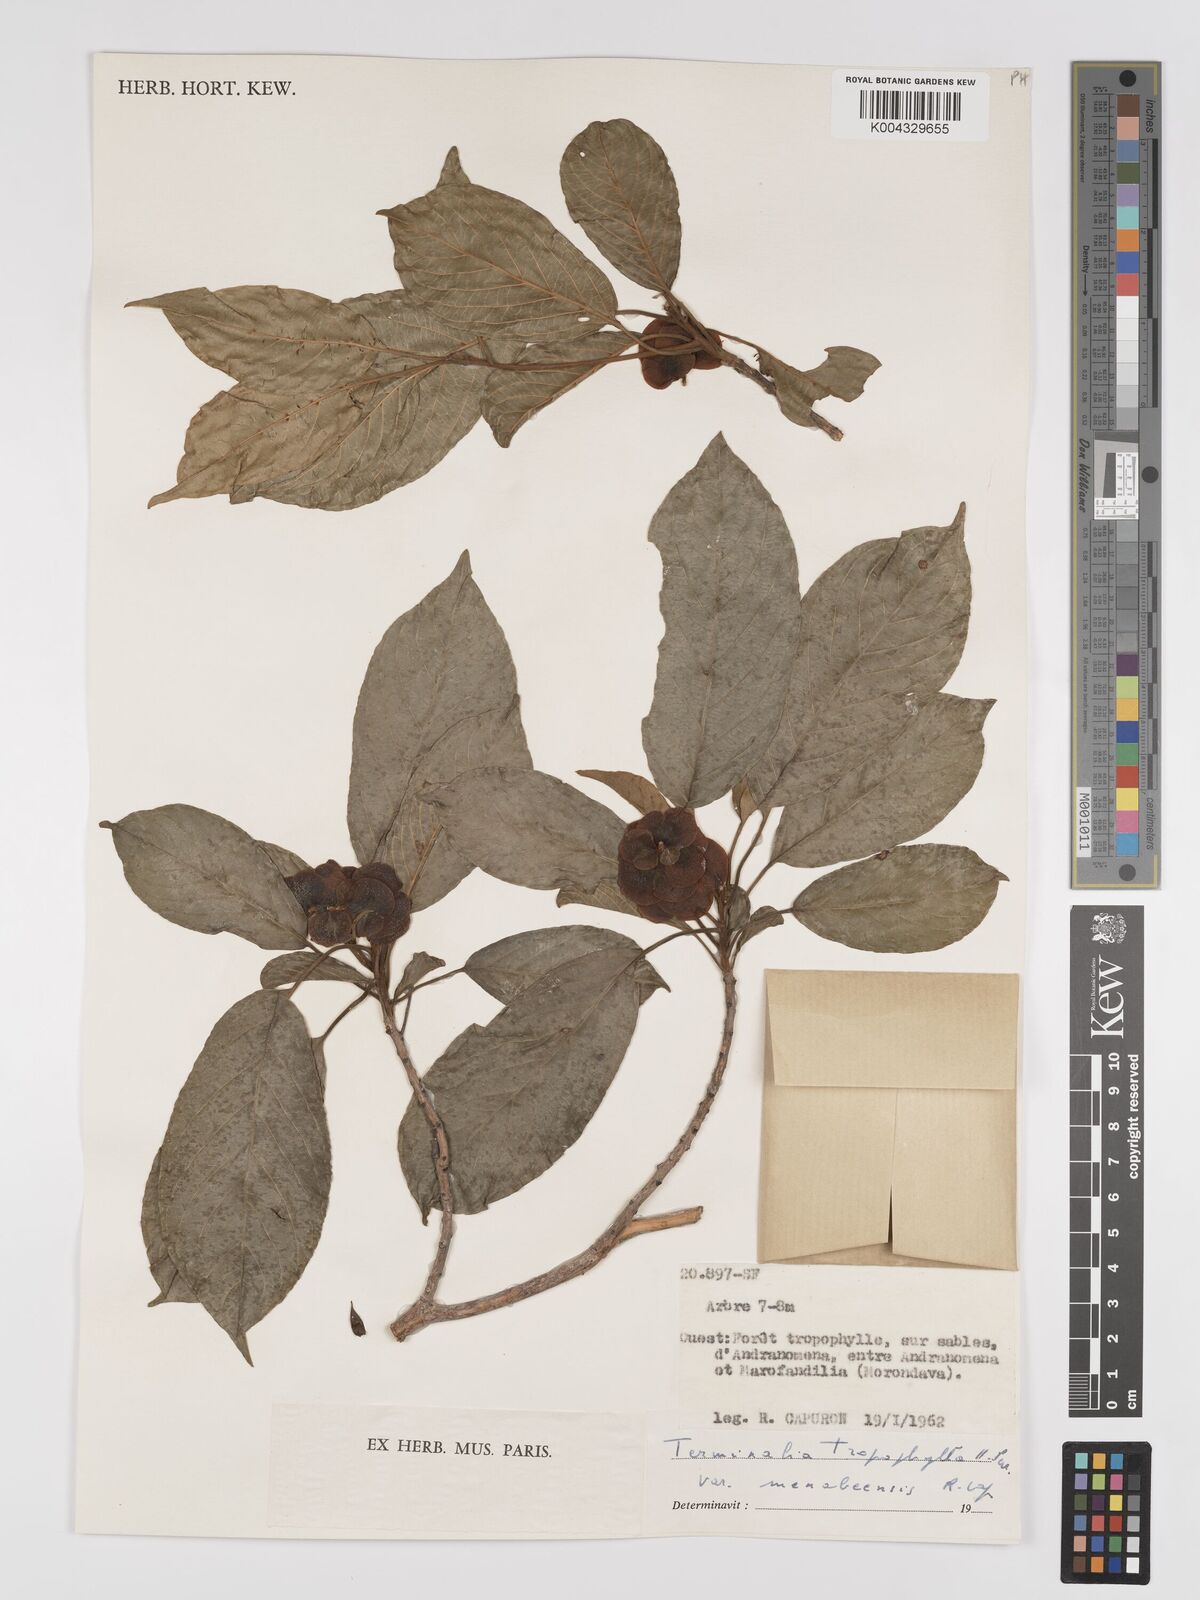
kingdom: Plantae
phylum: Tracheophyta
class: Magnoliopsida
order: Myrtales
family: Combretaceae
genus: Terminalia
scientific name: Terminalia tropophylla
